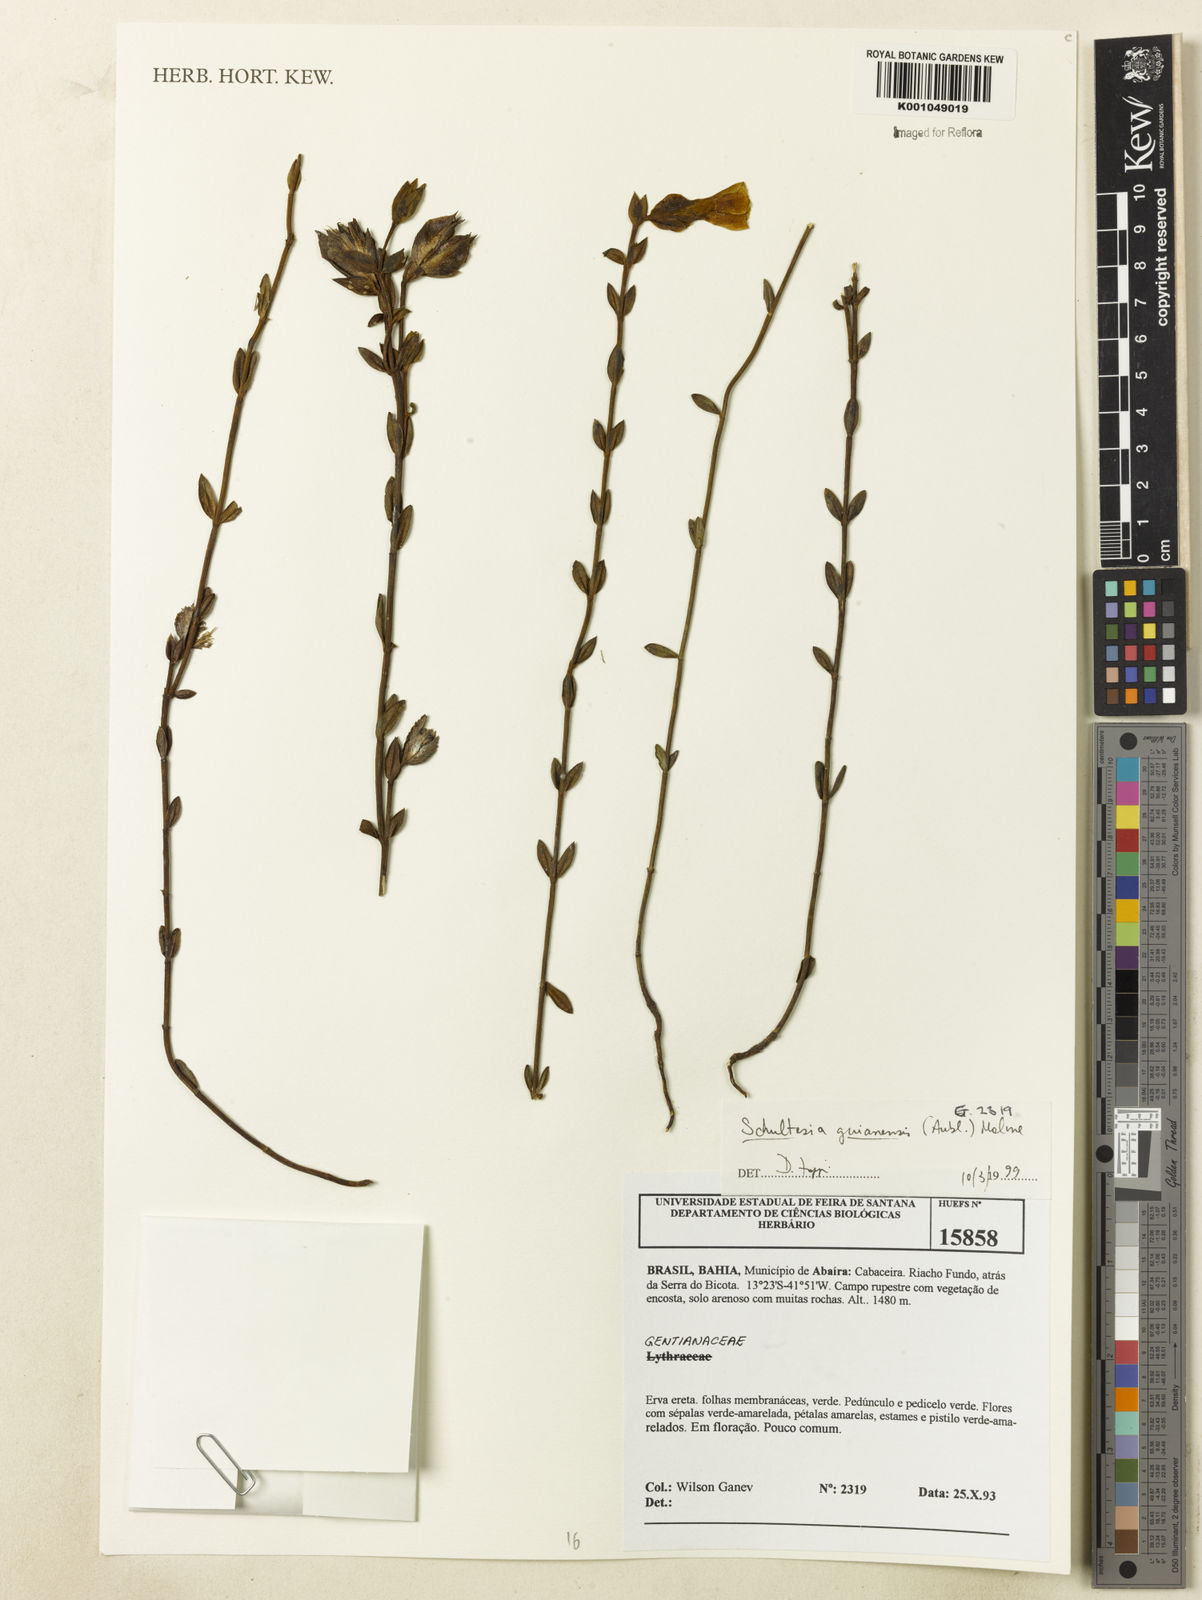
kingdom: Plantae
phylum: Tracheophyta
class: Magnoliopsida
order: Gentianales
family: Gentianaceae
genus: Schultesia
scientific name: Schultesia guianensis
